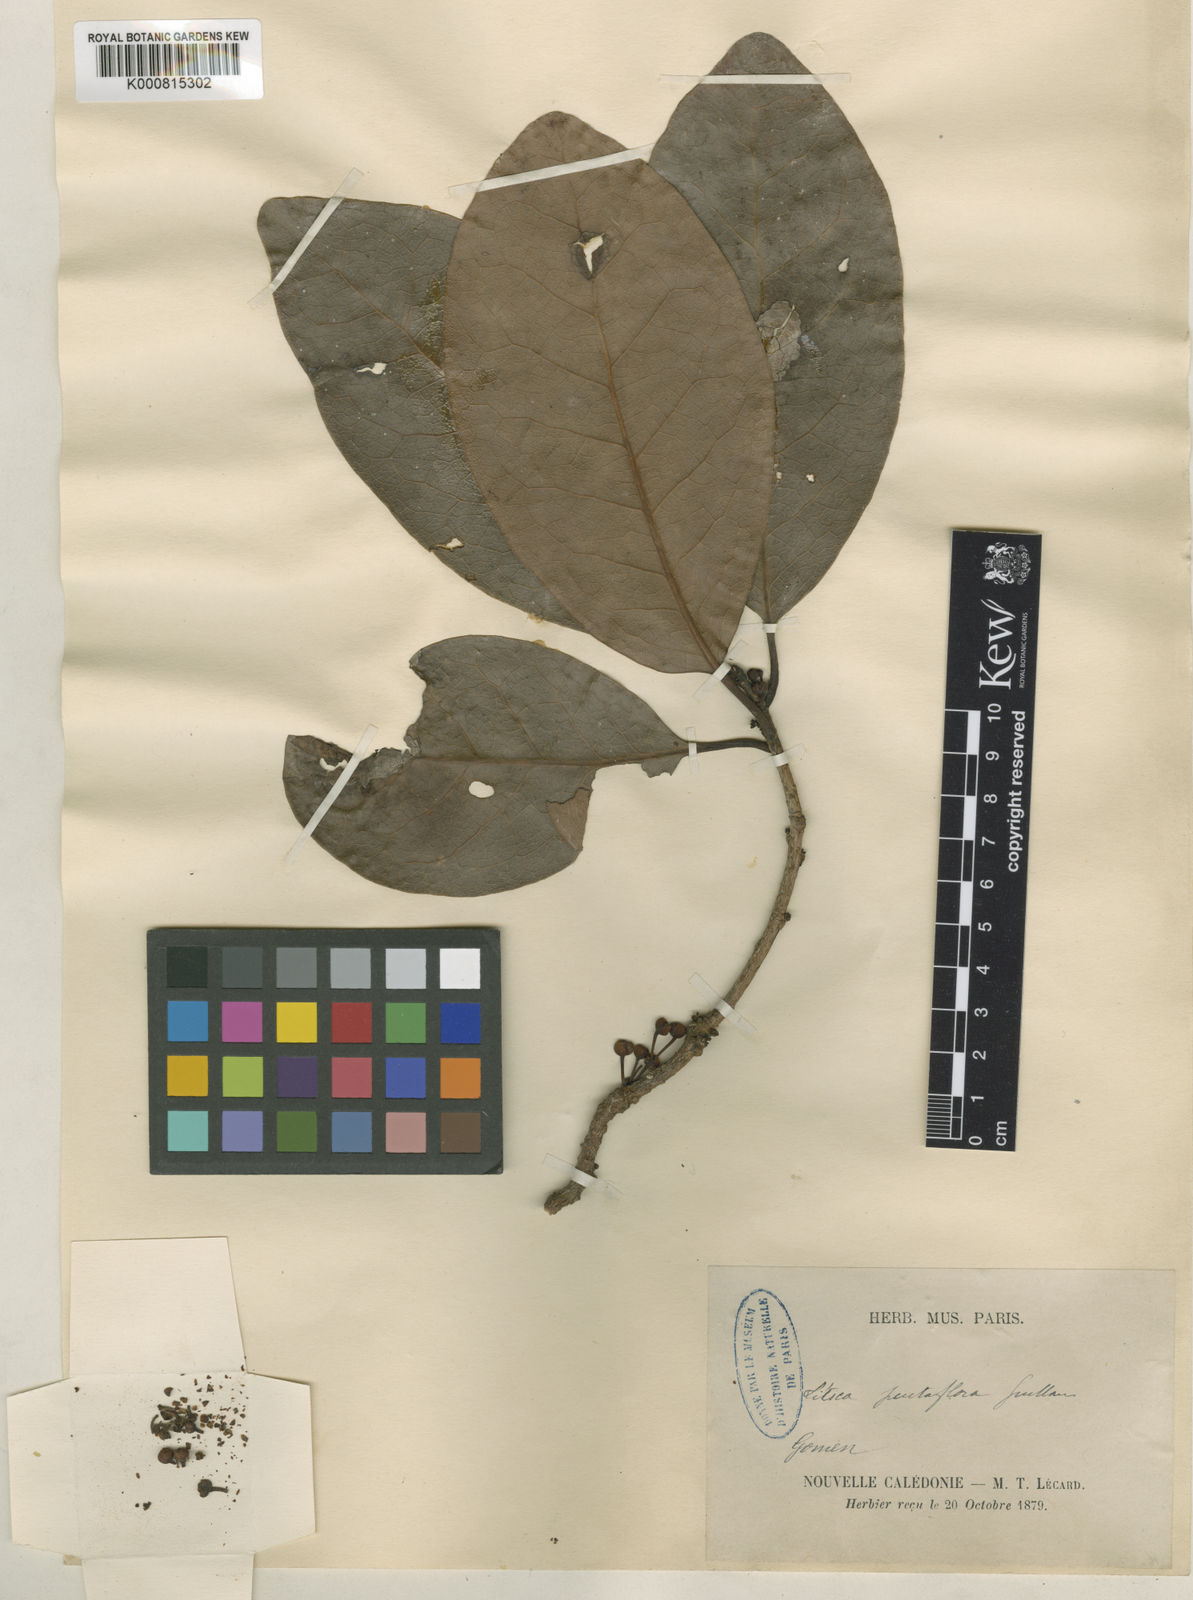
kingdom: Plantae
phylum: Tracheophyta
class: Magnoliopsida
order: Laurales
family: Lauraceae
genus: Litsea
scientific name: Litsea pentaflora
